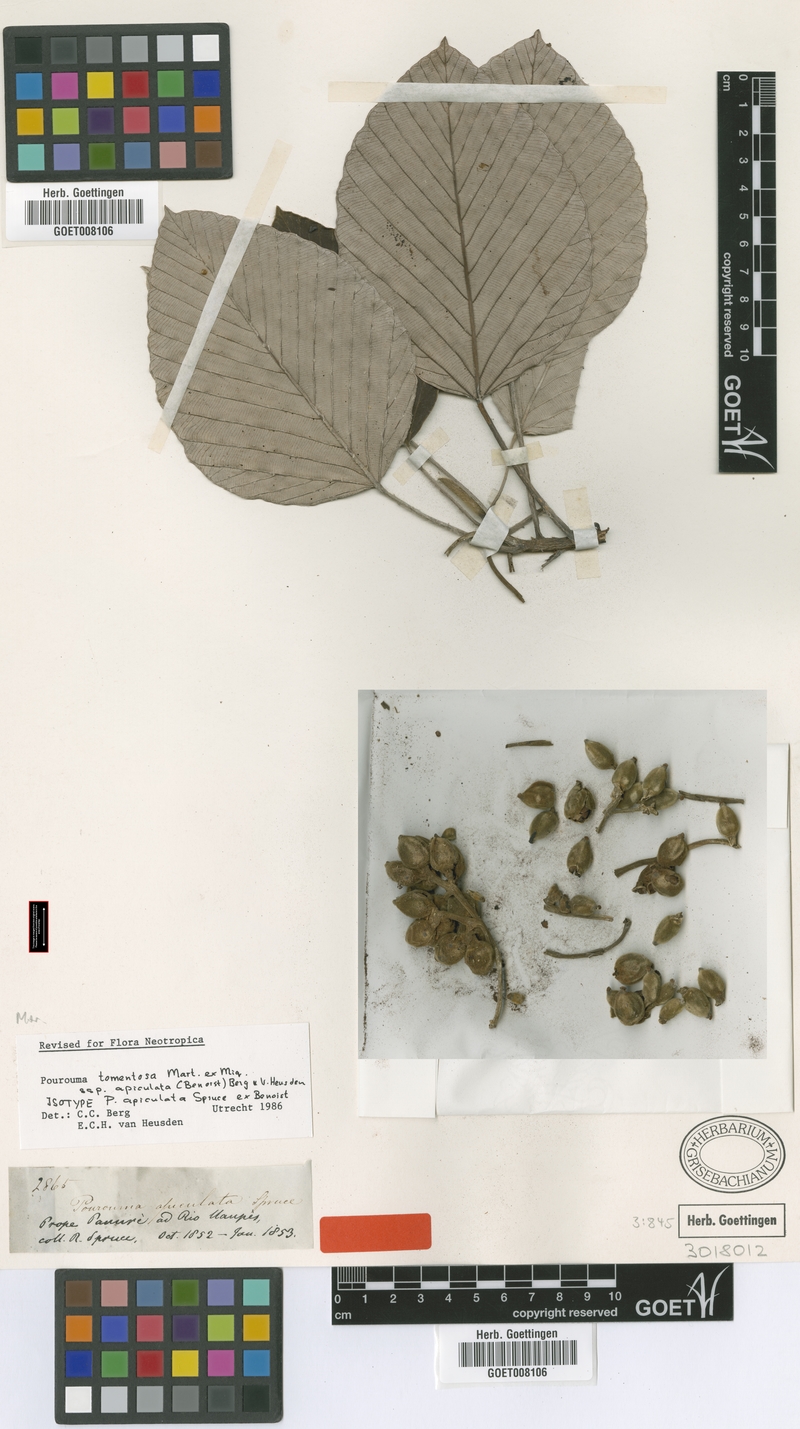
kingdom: Plantae
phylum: Tracheophyta
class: Magnoliopsida
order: Rosales
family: Urticaceae
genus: Pourouma
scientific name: Pourouma tomentosa
